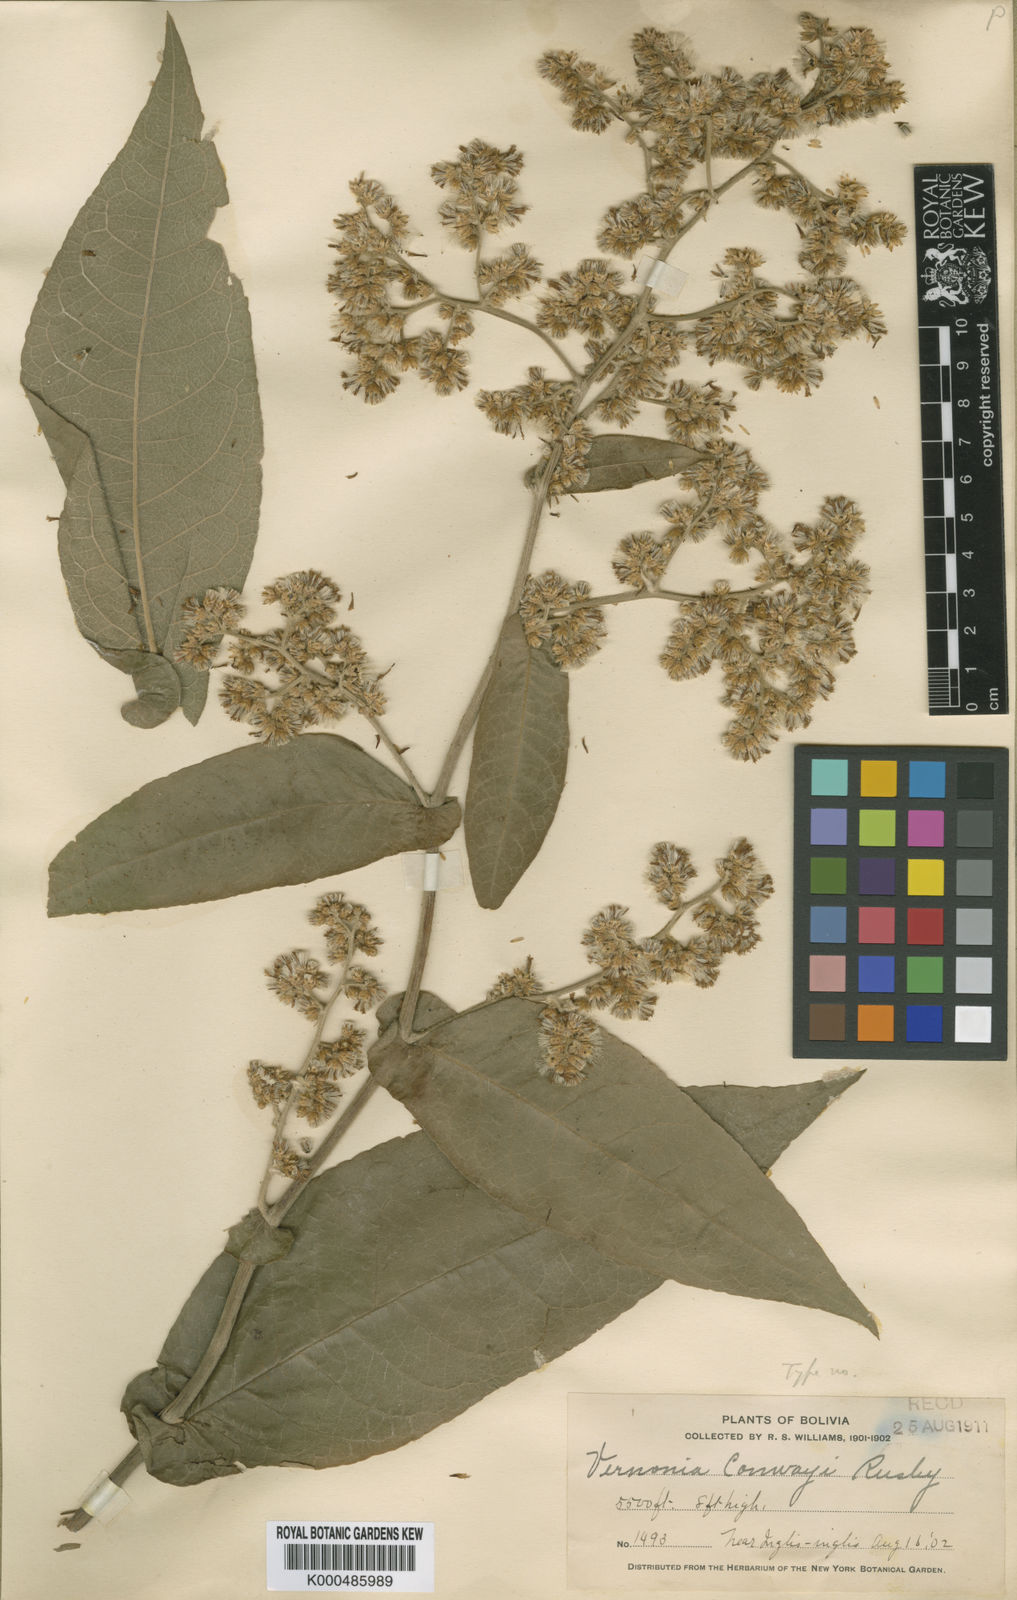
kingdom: Plantae
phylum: Tracheophyta
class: Magnoliopsida
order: Asterales
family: Asteraceae
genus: Critoniopsis
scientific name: Critoniopsis jubifera
